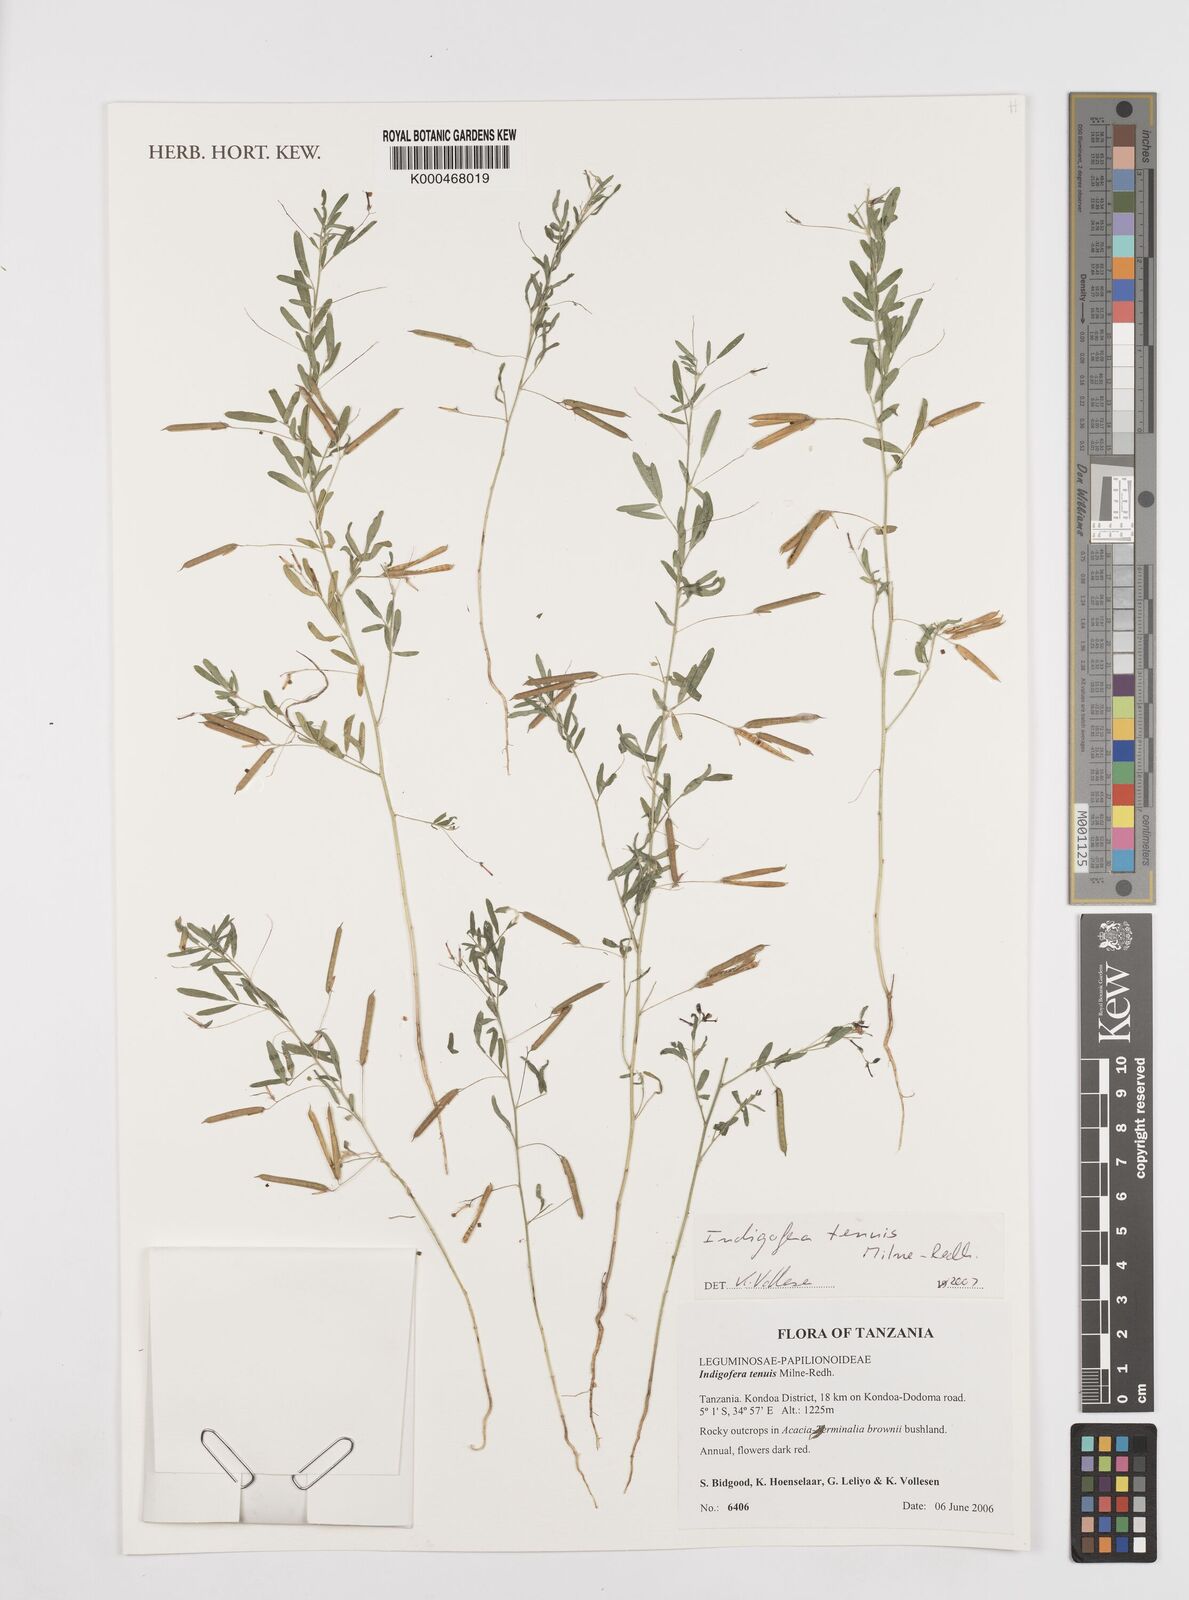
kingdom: Plantae
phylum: Tracheophyta
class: Magnoliopsida
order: Fabales
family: Fabaceae
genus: Indigofera
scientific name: Indigofera dissitiflora
